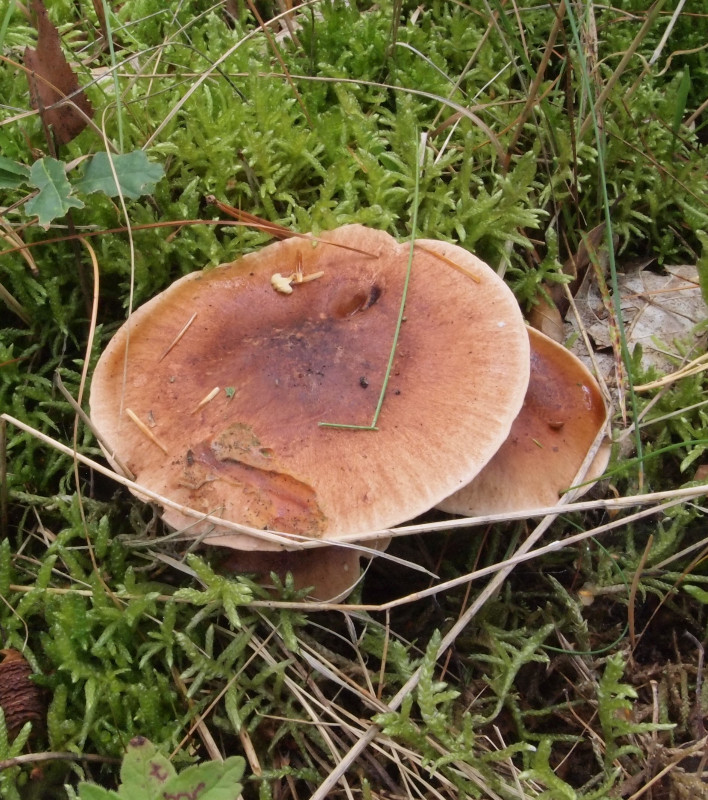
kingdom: Fungi
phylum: Basidiomycota
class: Agaricomycetes
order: Agaricales
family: Tricholomataceae
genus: Tricholoma
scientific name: Tricholoma fulvum
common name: birke-ridderhat
